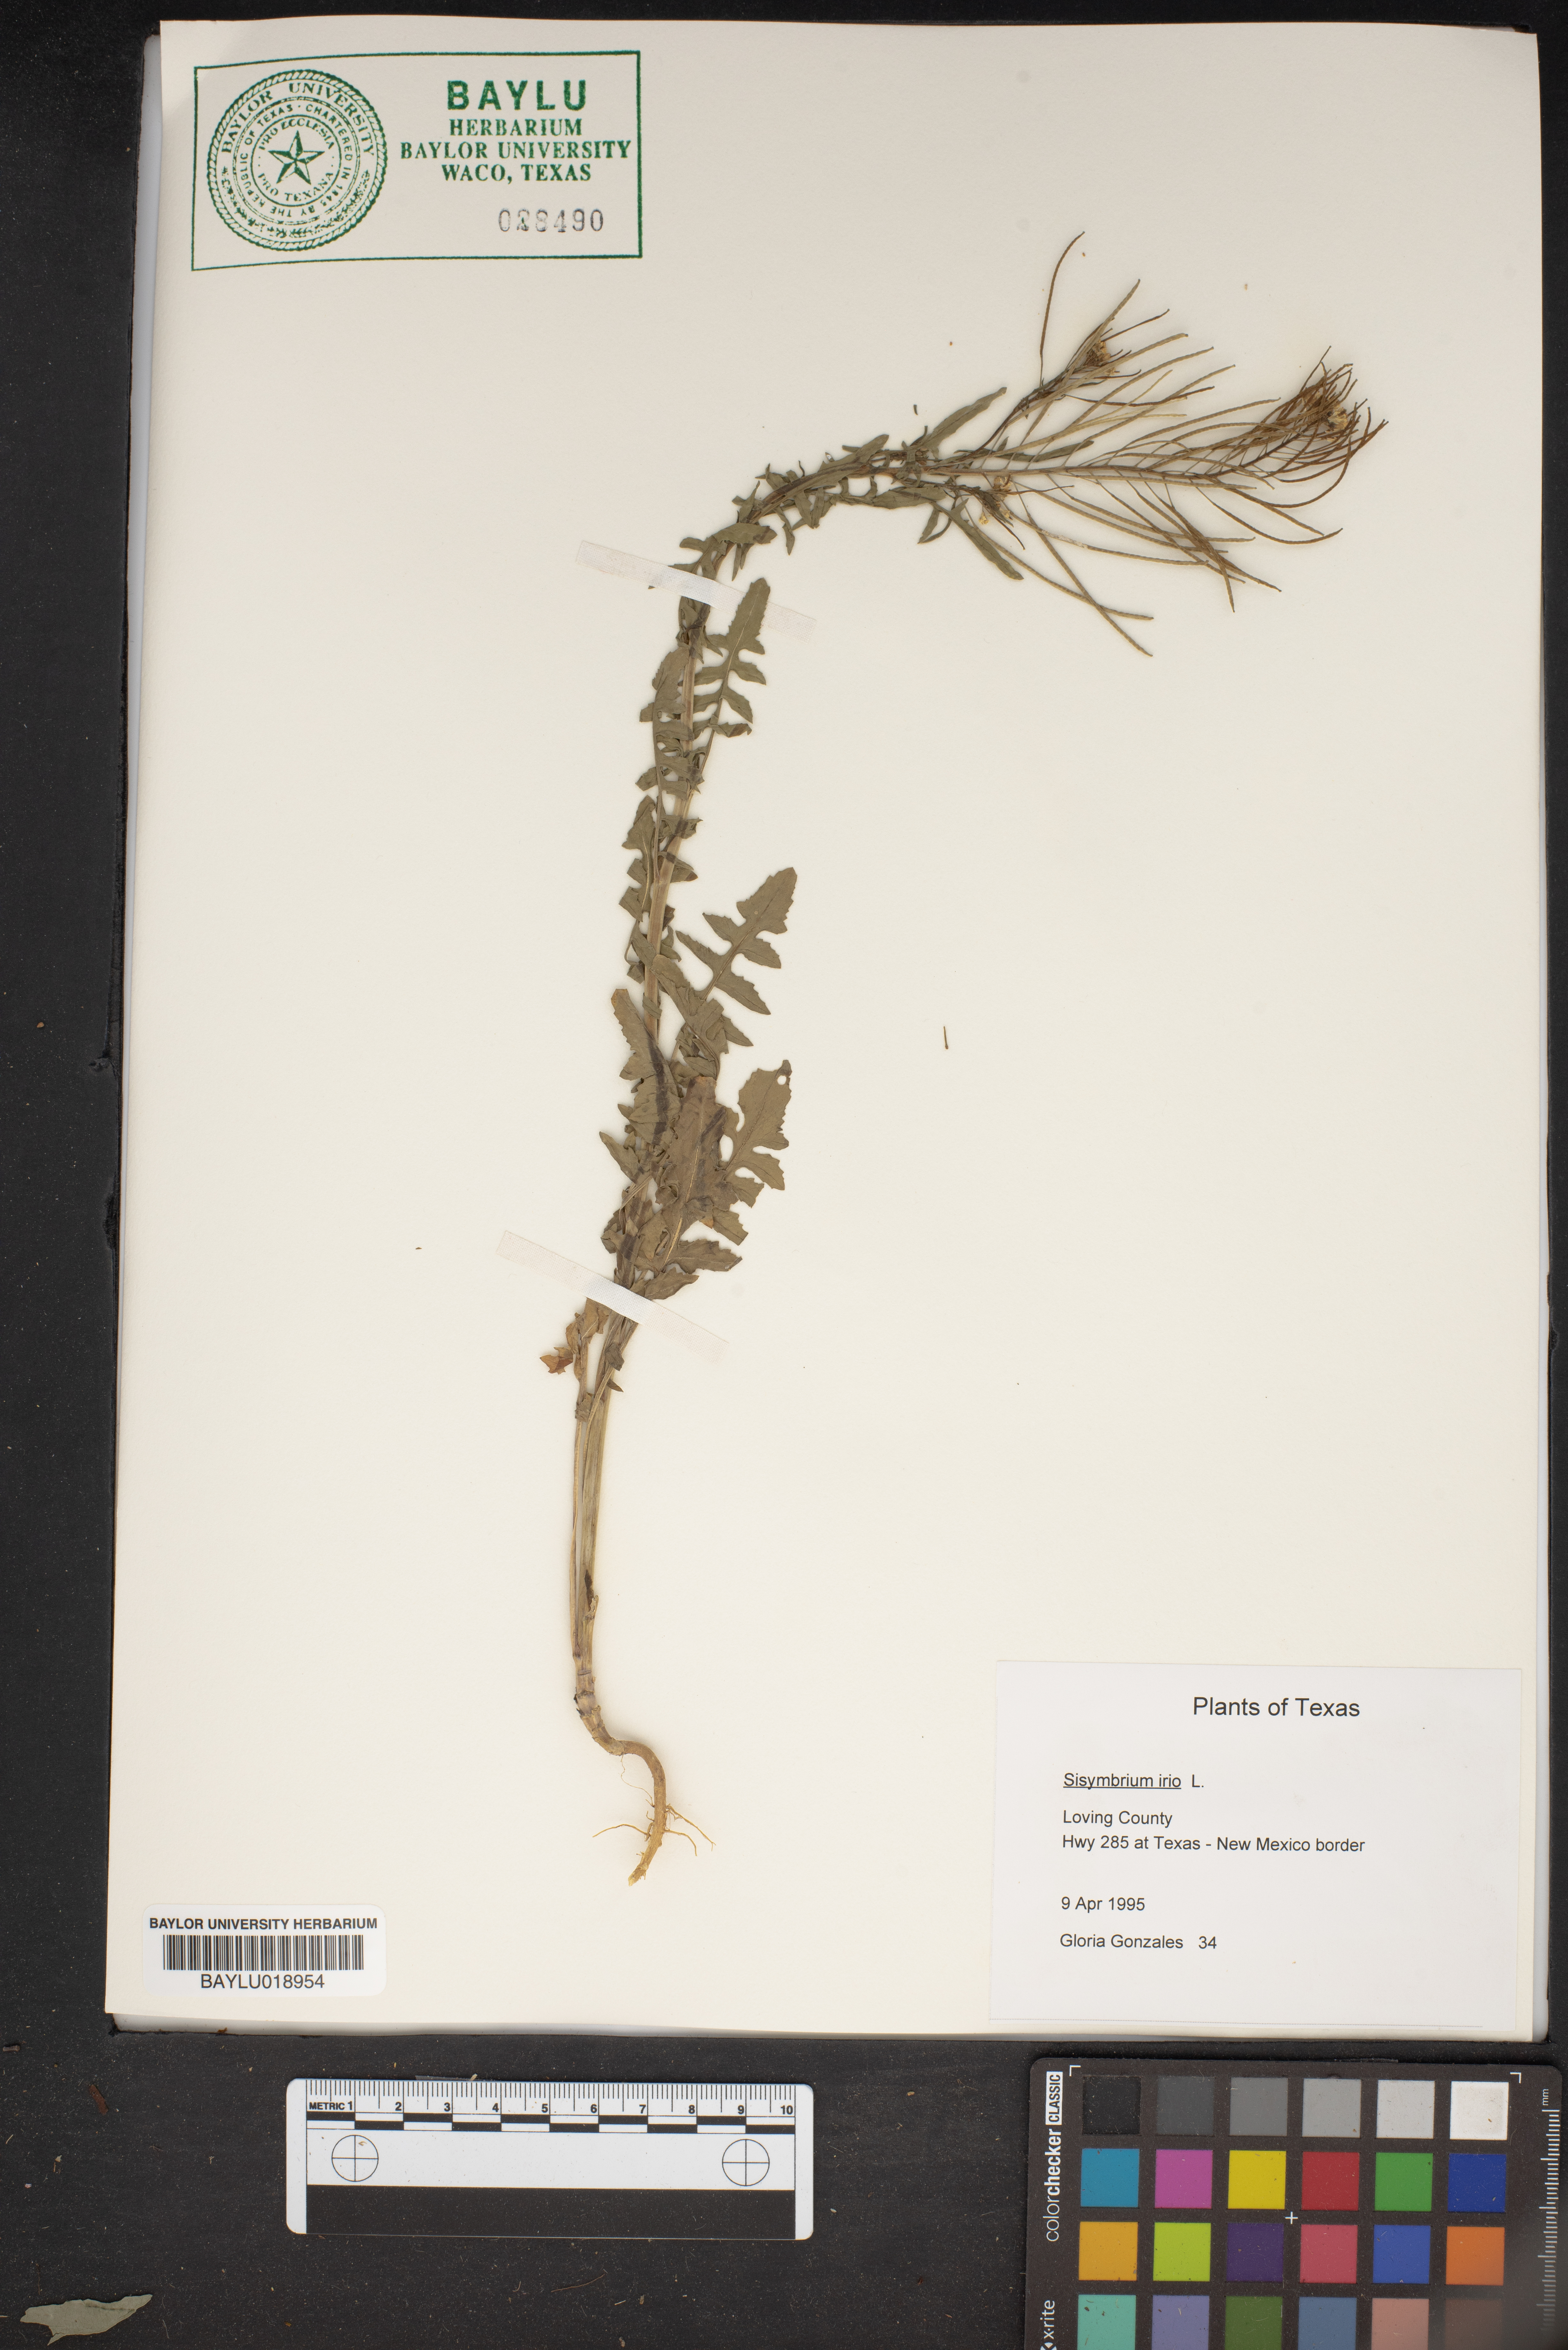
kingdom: Plantae
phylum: Tracheophyta
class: Magnoliopsida
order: Brassicales
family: Brassicaceae
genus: Sisymbrium
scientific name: Sisymbrium irio
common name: London rocket
